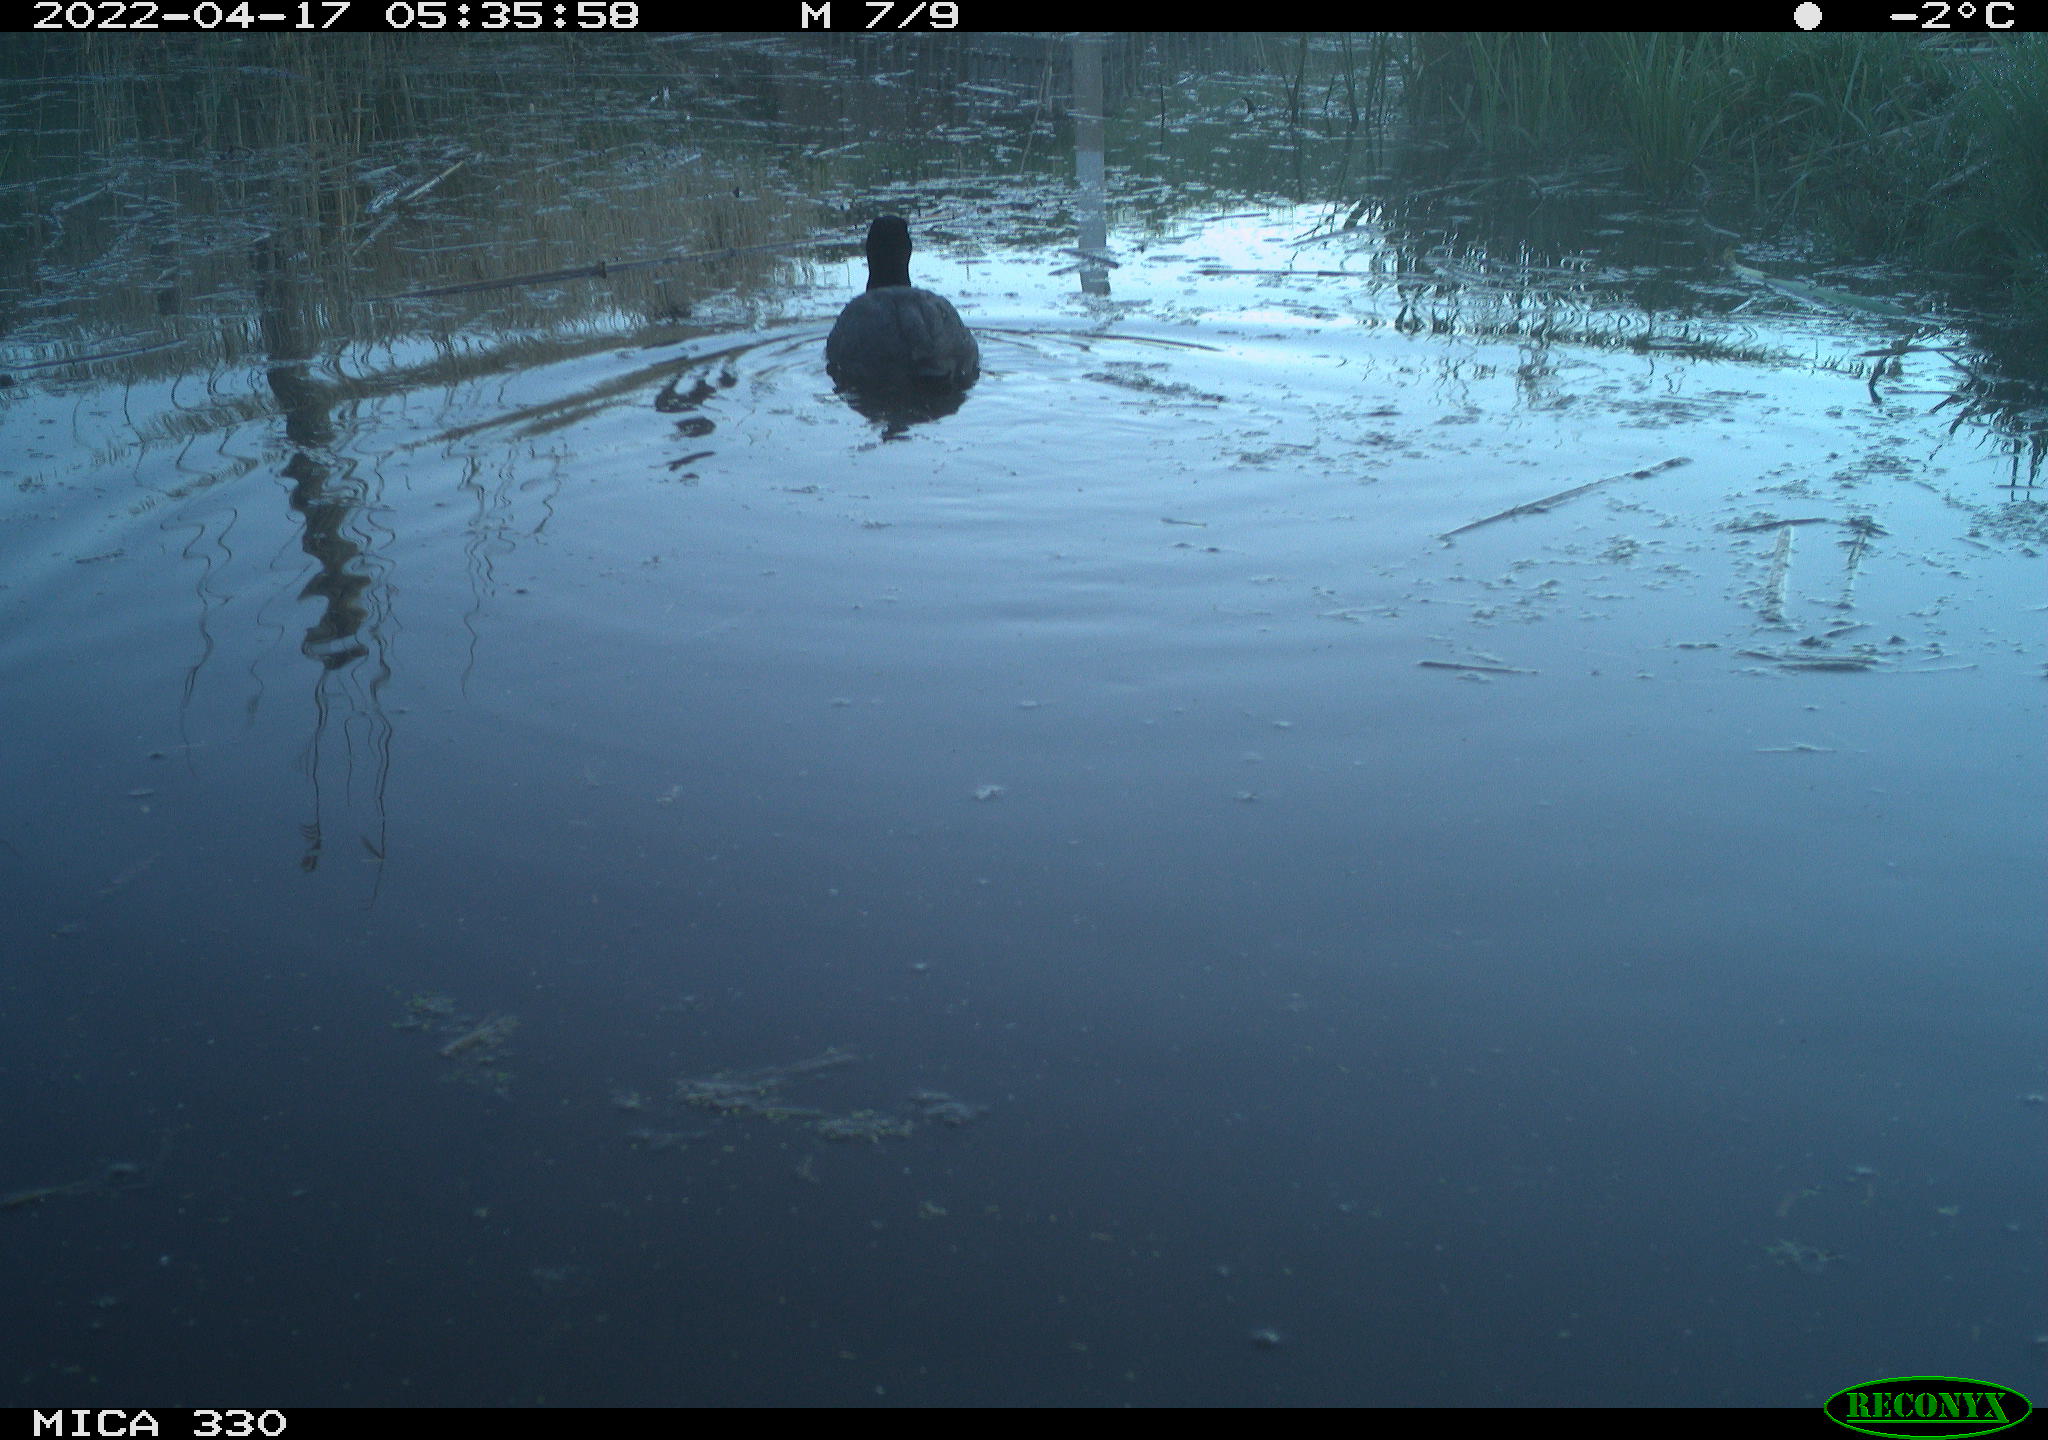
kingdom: Animalia
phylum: Chordata
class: Aves
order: Gruiformes
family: Rallidae
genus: Fulica
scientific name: Fulica atra
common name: Eurasian coot
